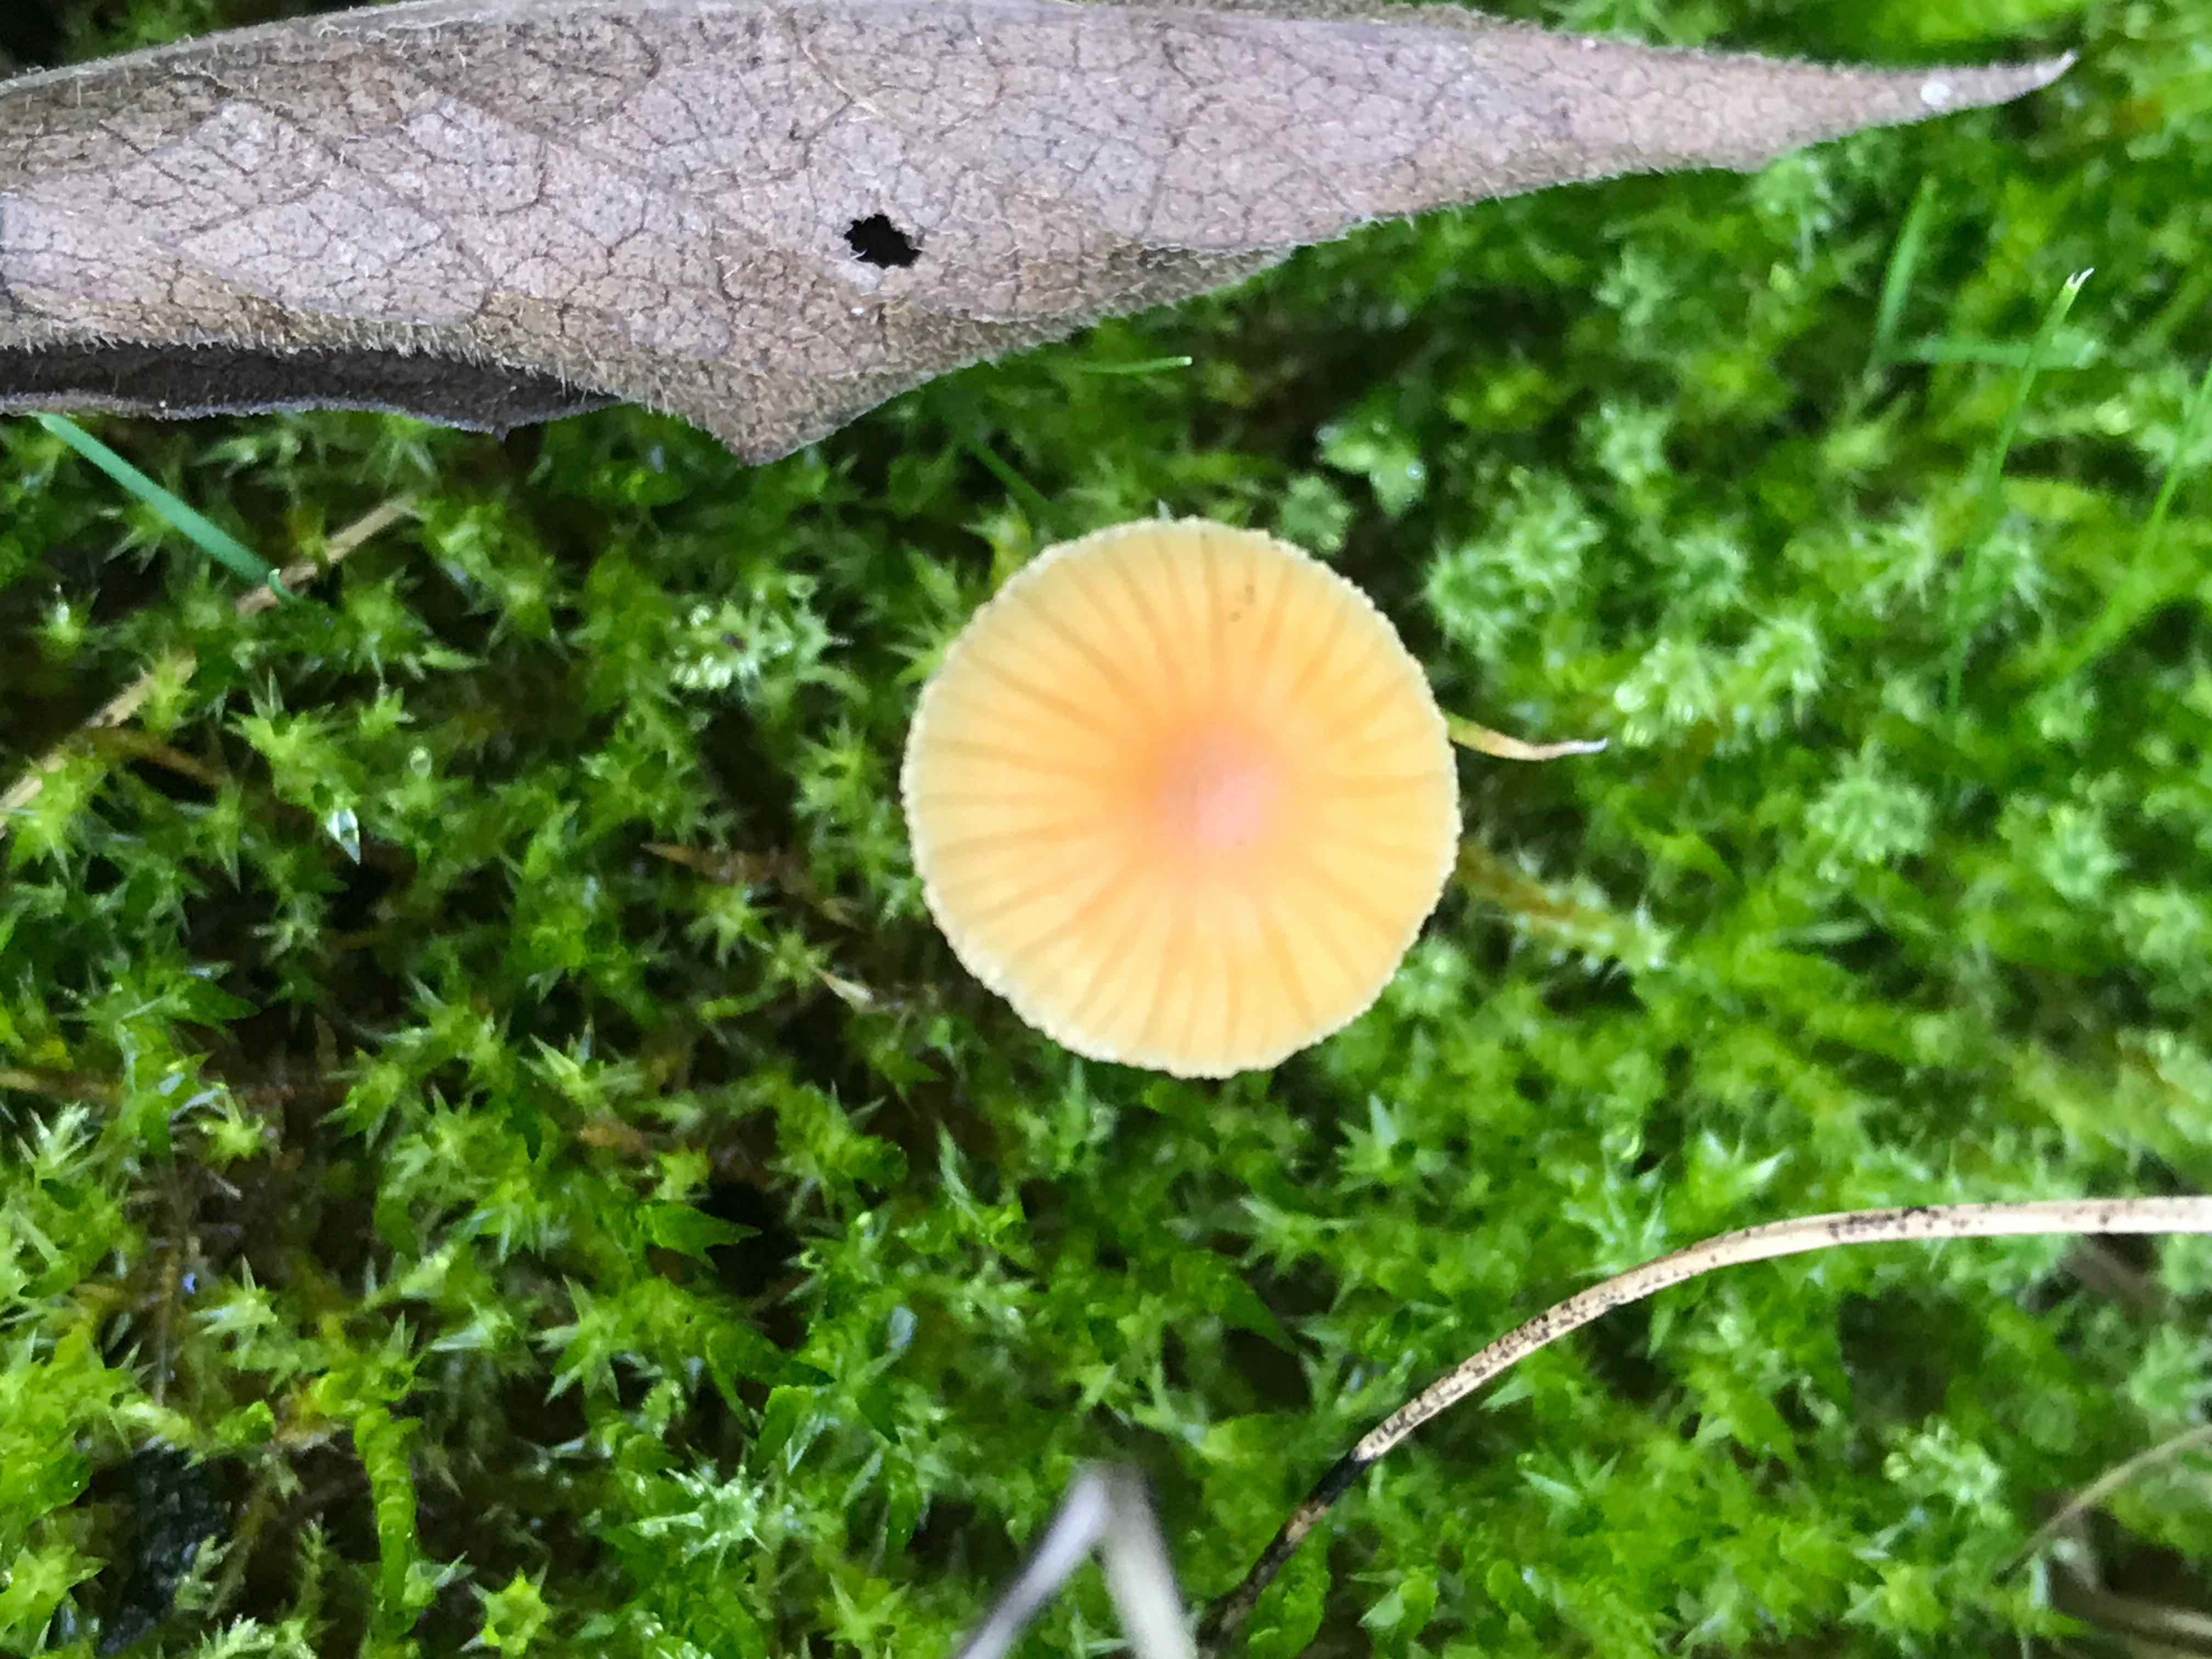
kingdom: Fungi
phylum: Basidiomycota
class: Agaricomycetes
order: Agaricales
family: Hymenogastraceae
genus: Galerina
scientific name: Galerina
